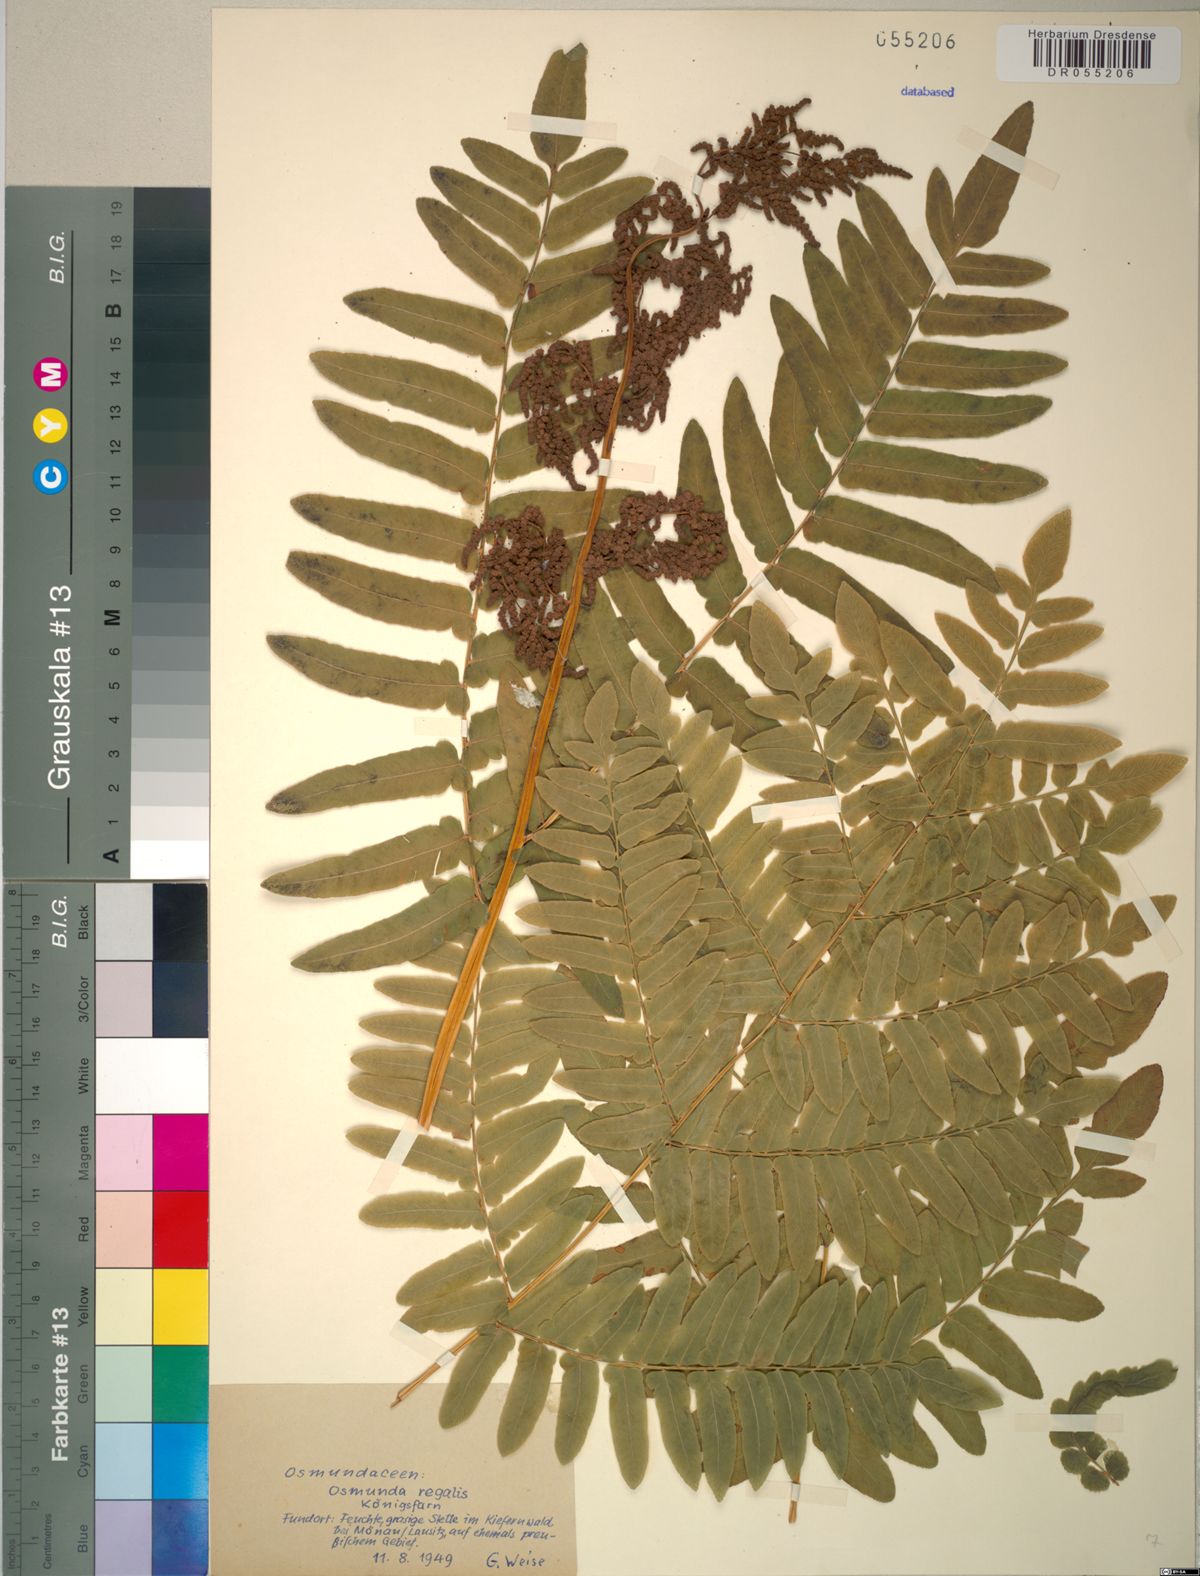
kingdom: Plantae
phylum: Tracheophyta
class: Polypodiopsida
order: Osmundales
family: Osmundaceae
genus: Osmunda
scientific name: Osmunda regalis
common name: Royal fern
